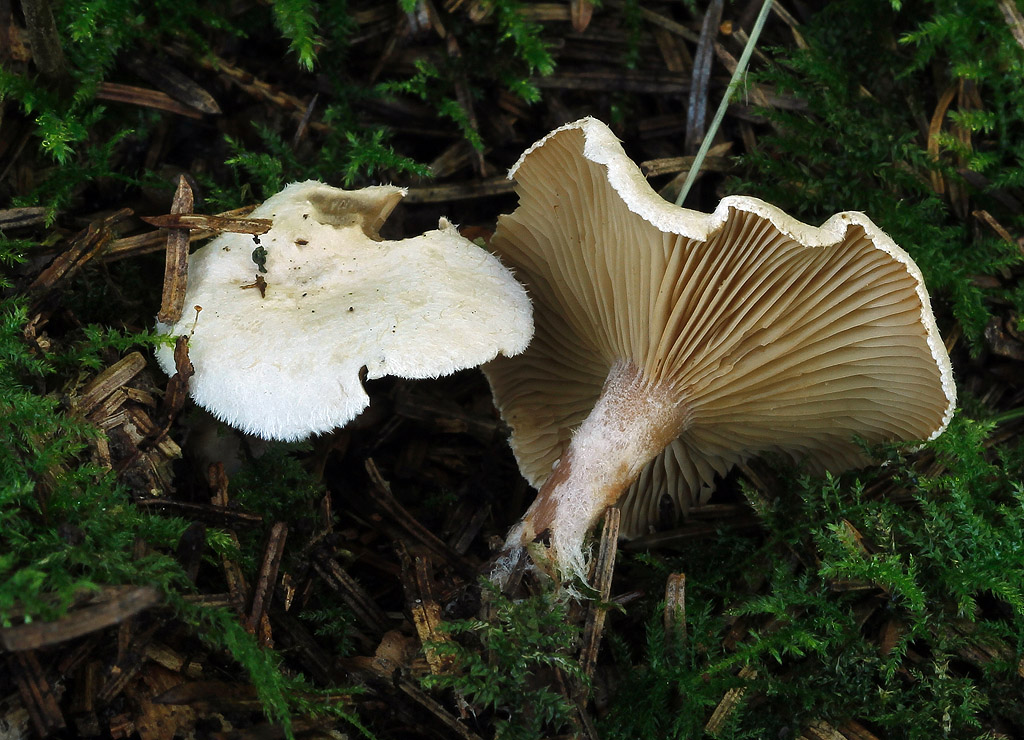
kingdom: Fungi
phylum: Basidiomycota
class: Agaricomycetes
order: Agaricales
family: Tricholomataceae
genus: Ripartites
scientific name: Ripartites tricholoma
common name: almindelig skæghat
